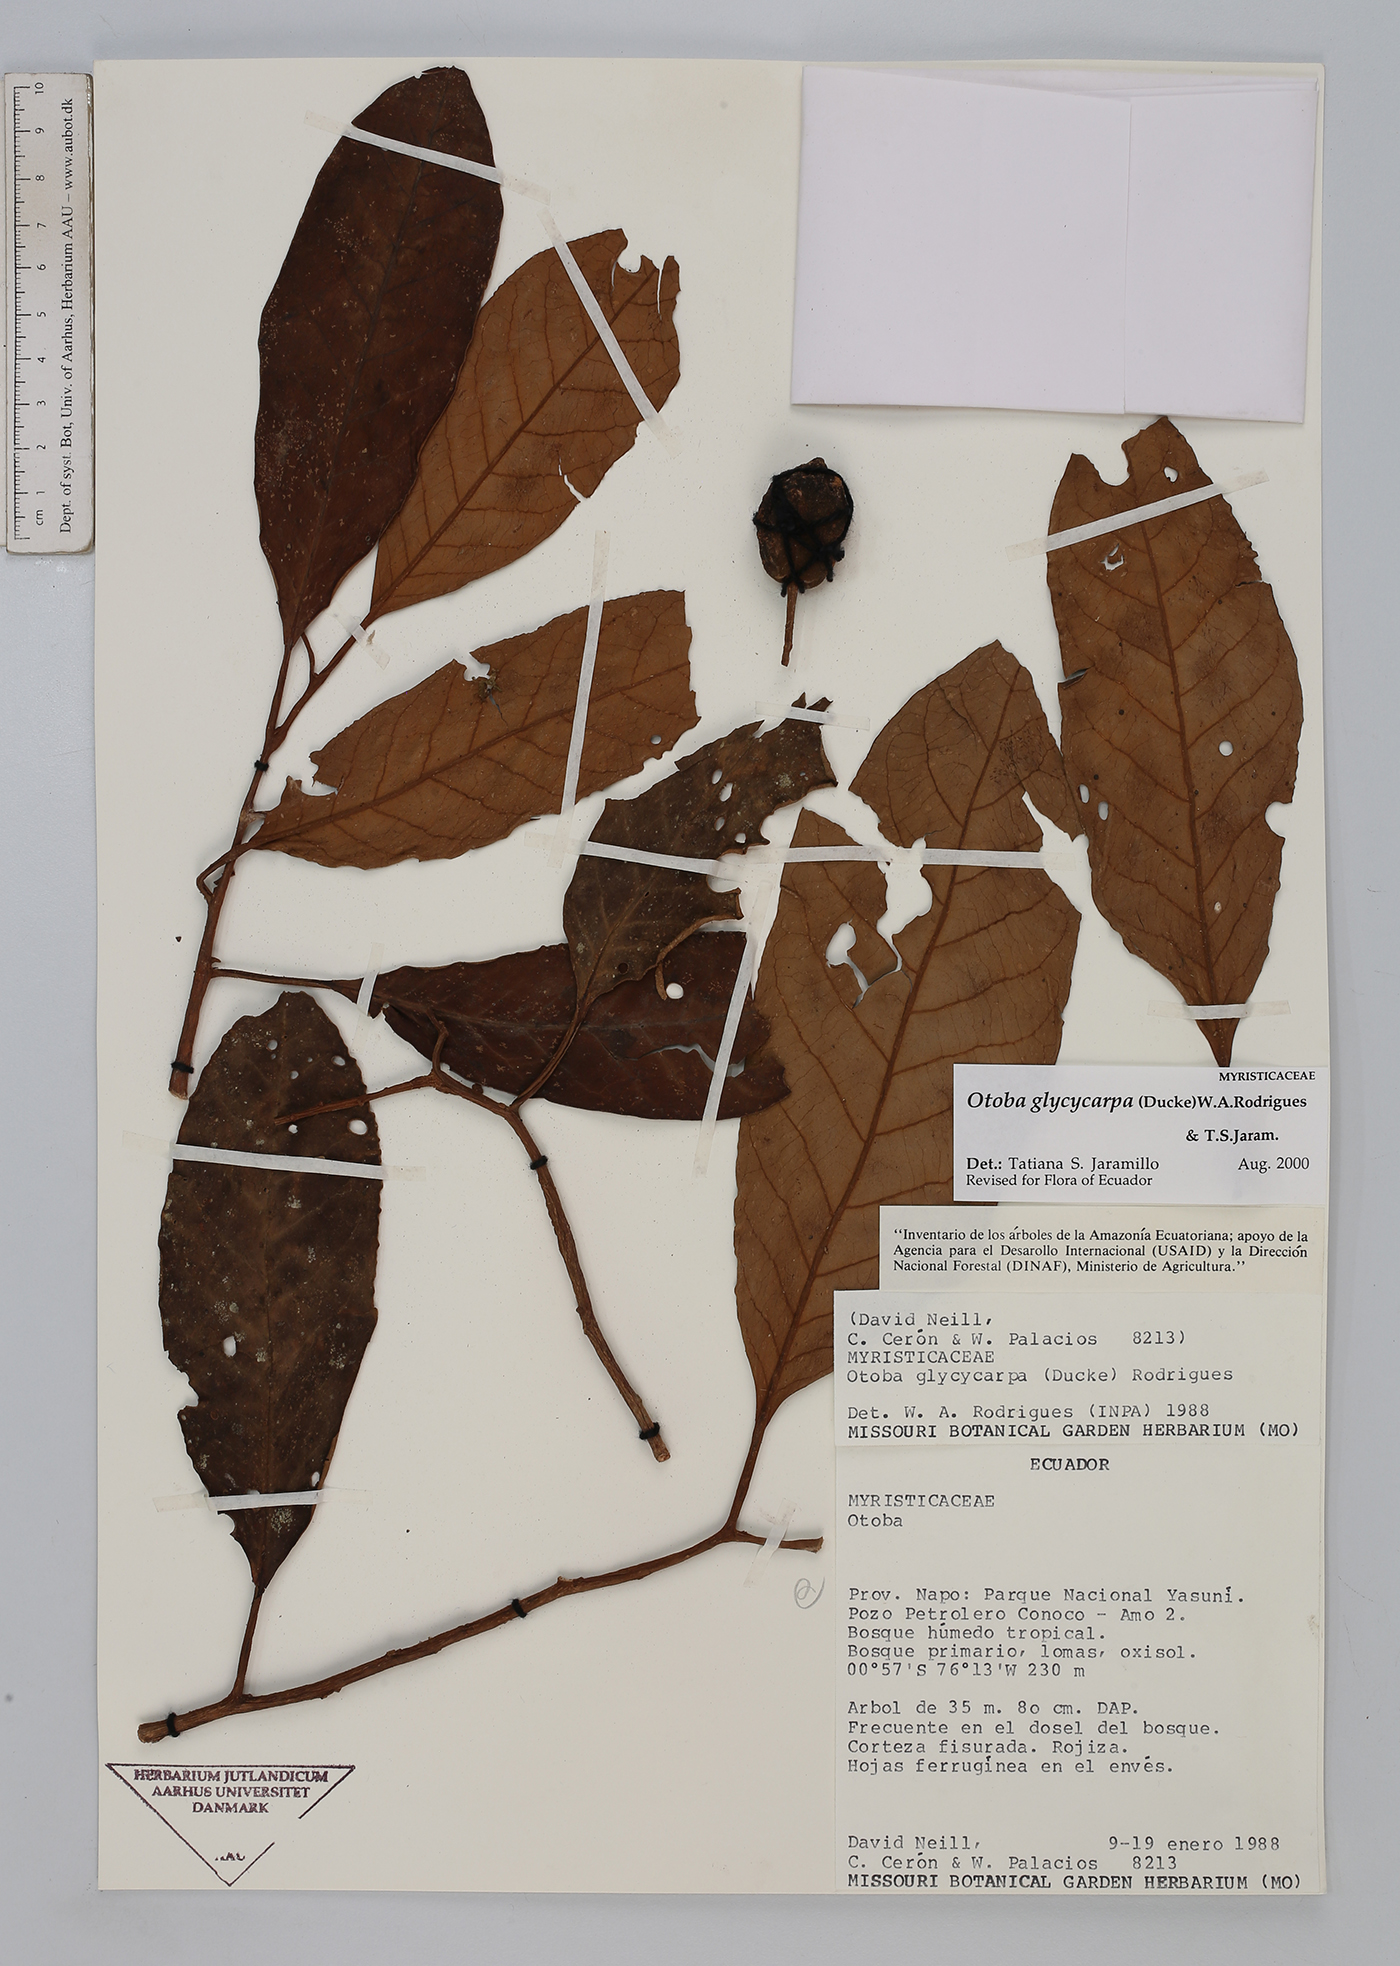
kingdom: Plantae
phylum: Tracheophyta
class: Magnoliopsida
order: Magnoliales
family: Myristicaceae
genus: Otoba
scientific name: Otoba glycycarpa
